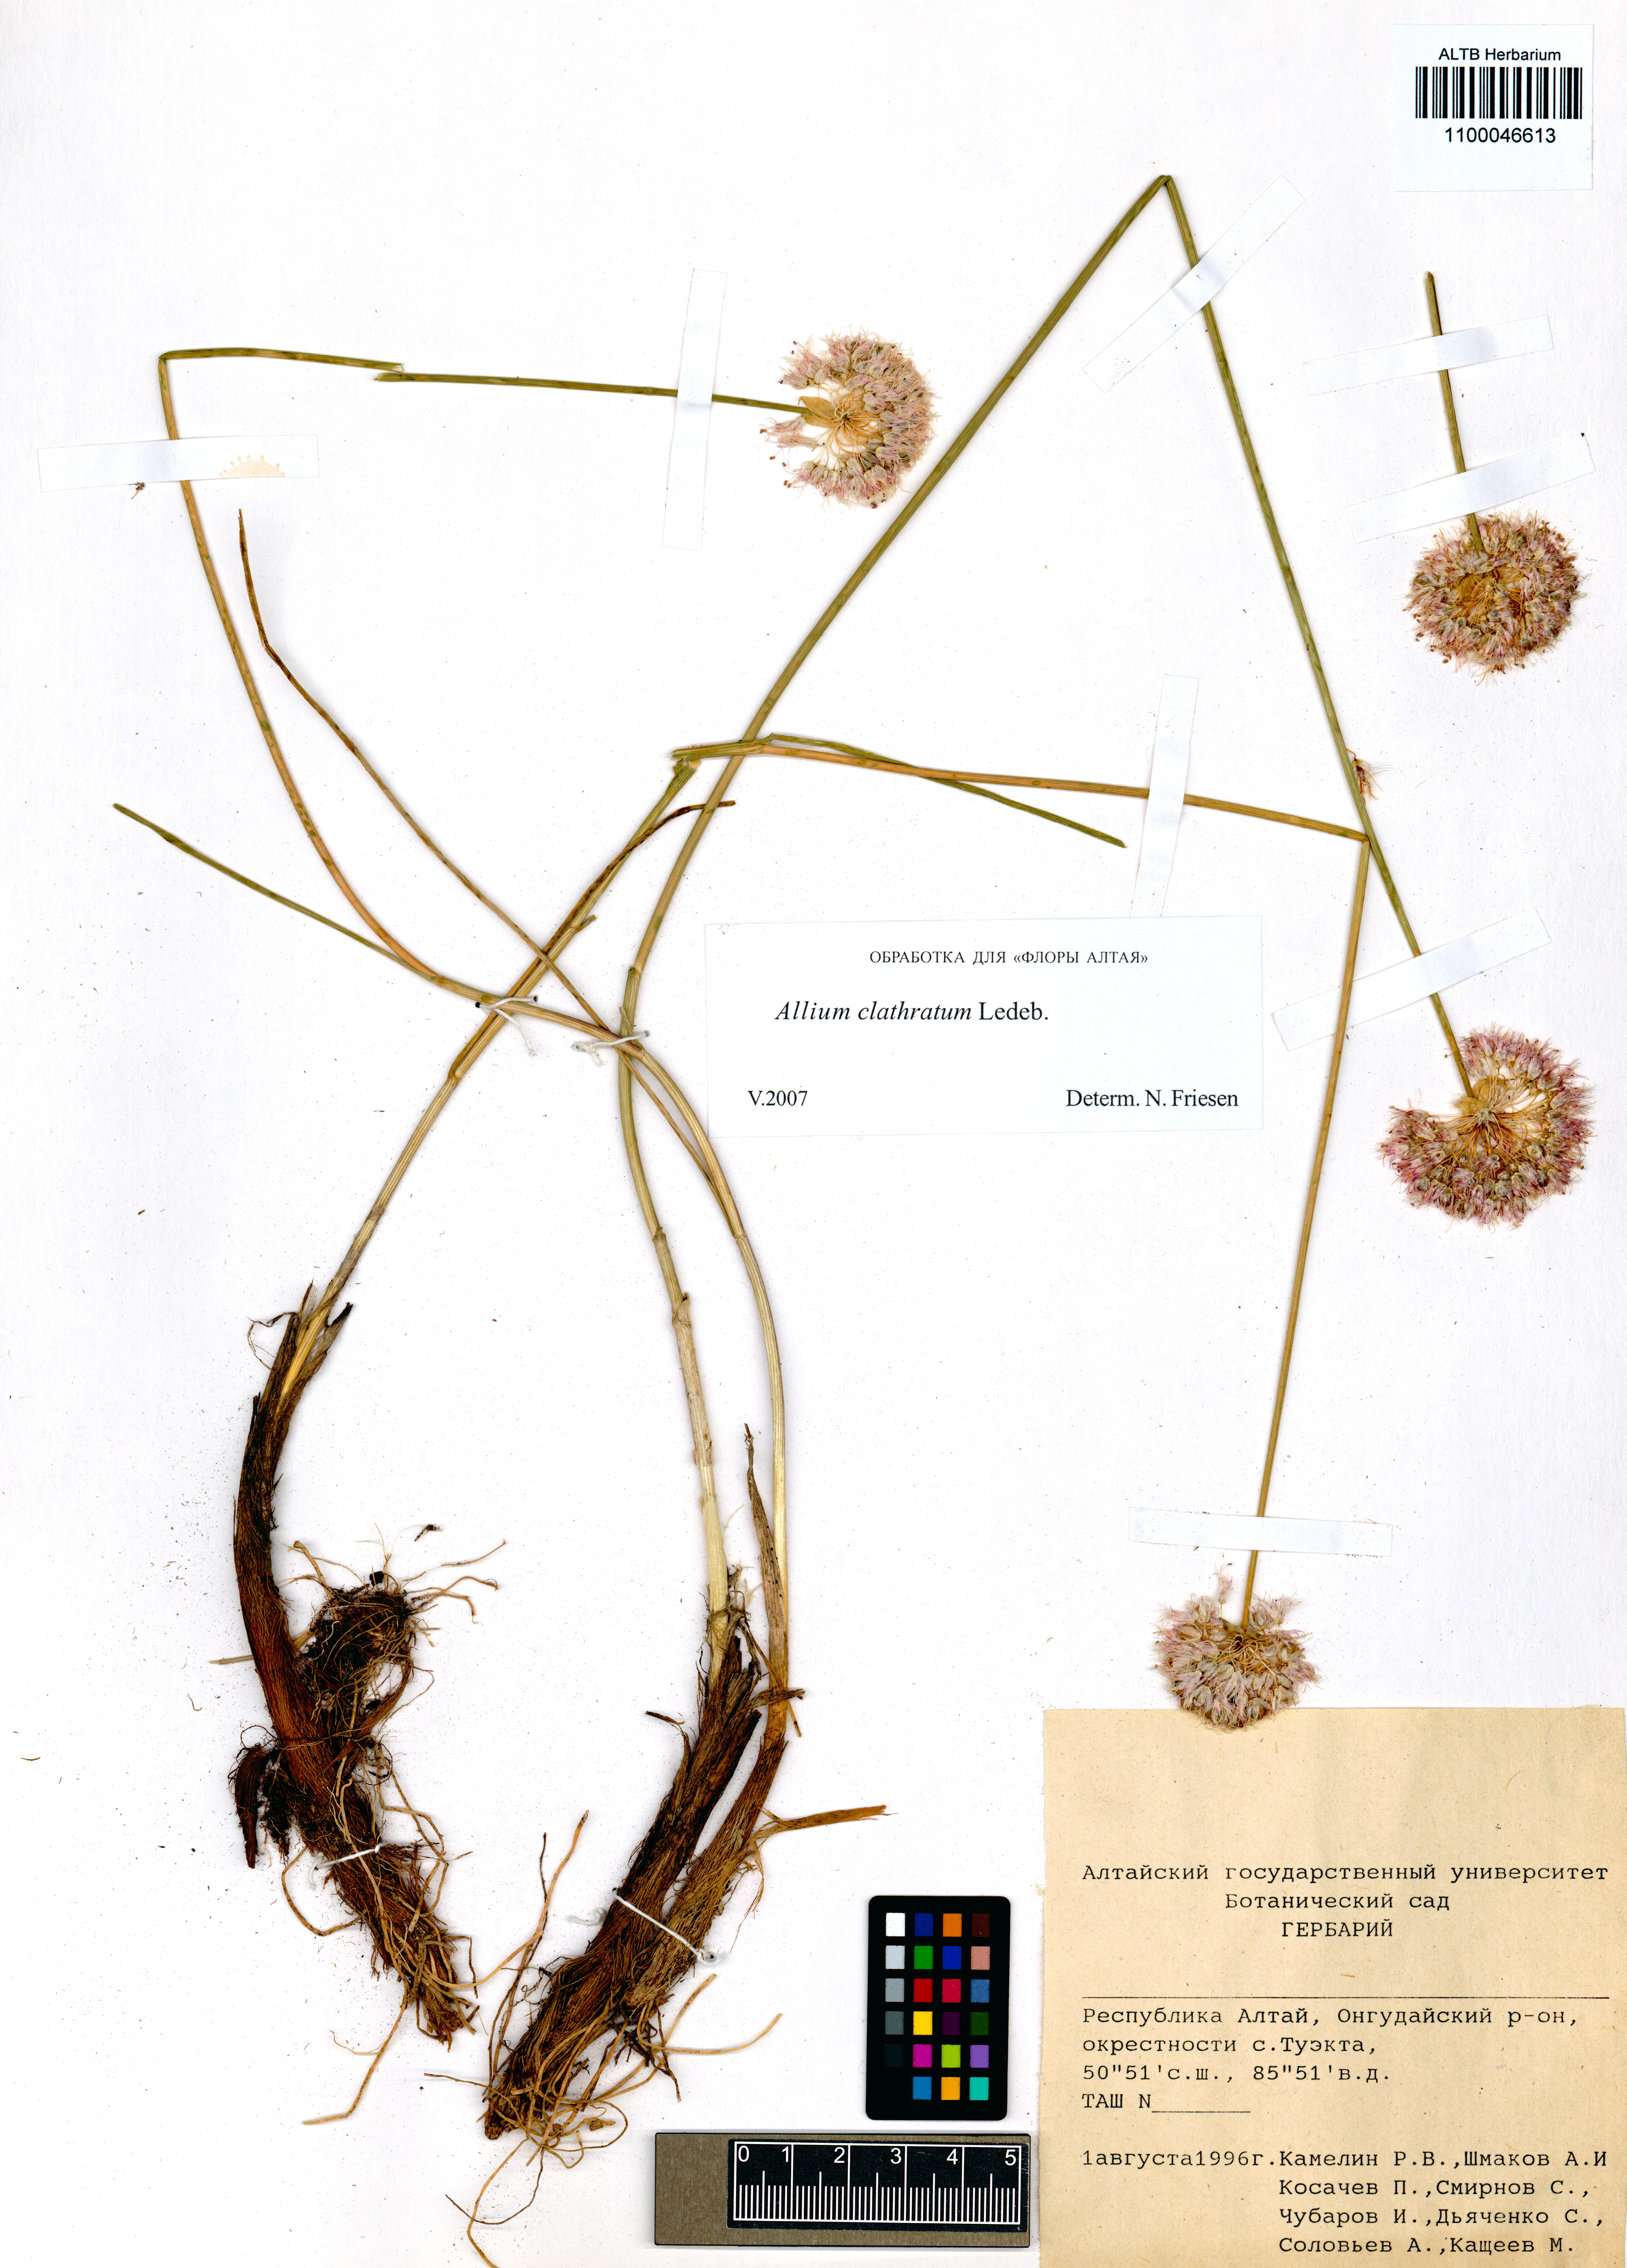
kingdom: Plantae
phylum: Tracheophyta
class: Liliopsida
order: Asparagales
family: Amaryllidaceae
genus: Allium
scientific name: Allium clathratum
